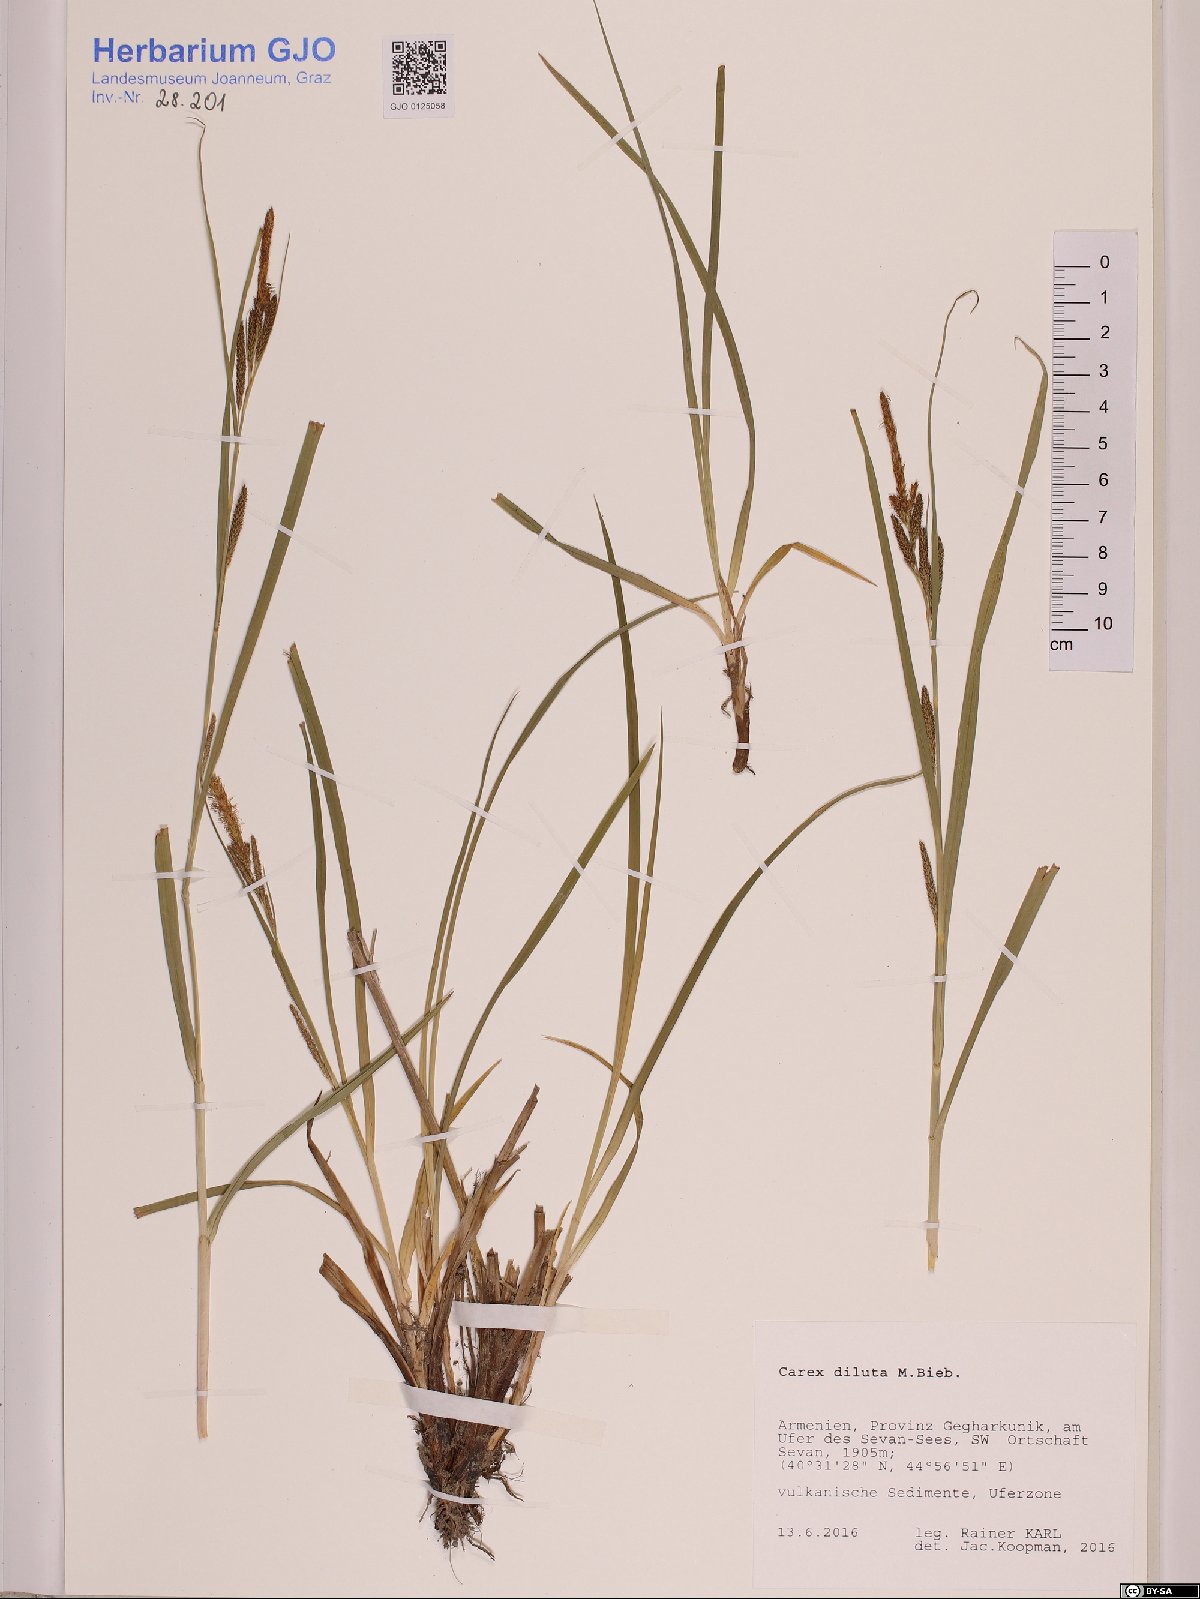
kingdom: Plantae
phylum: Tracheophyta
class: Liliopsida
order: Poales
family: Cyperaceae
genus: Carex
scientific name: Carex diluta
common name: Sedge
